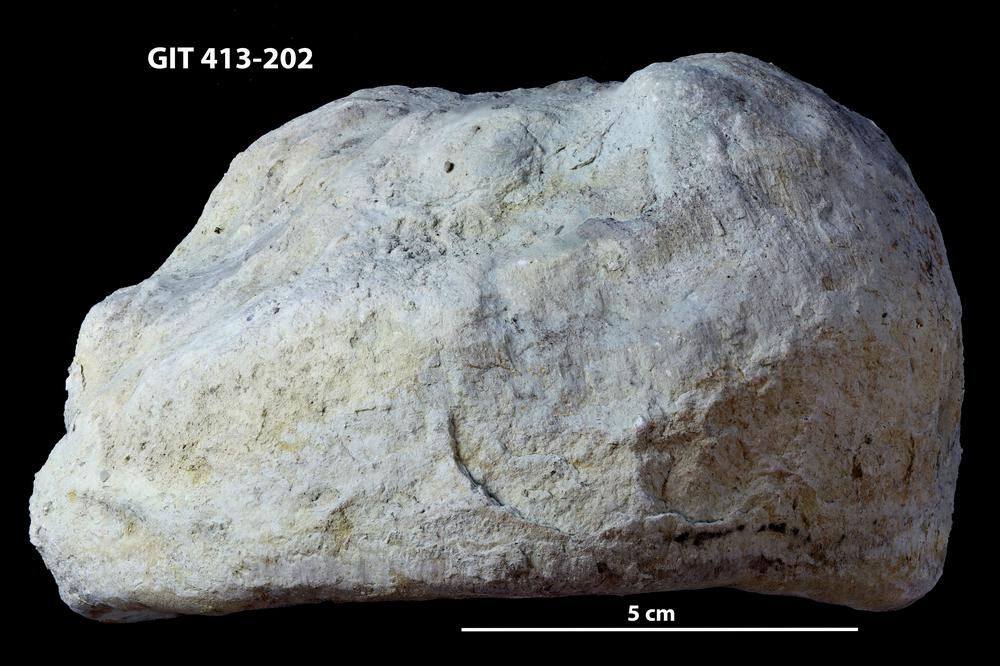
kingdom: Animalia
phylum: Porifera
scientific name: Porifera
